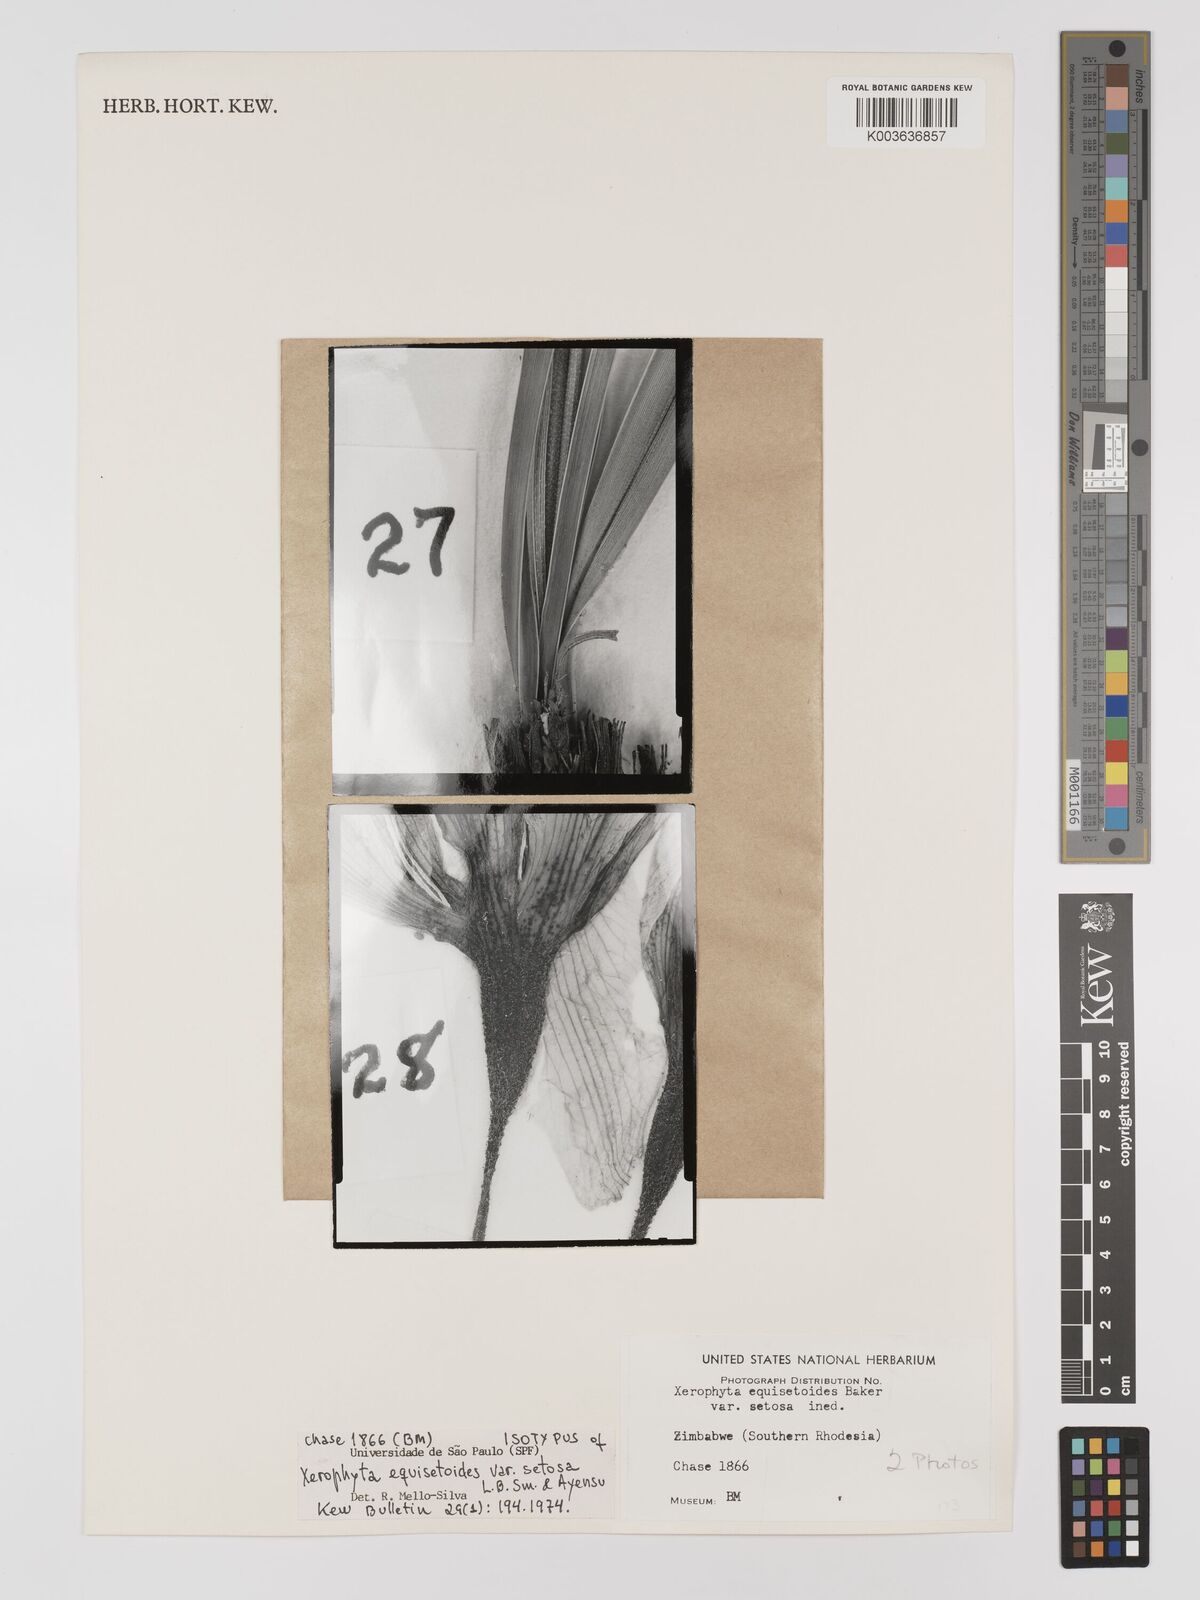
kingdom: Plantae
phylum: Tracheophyta
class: Liliopsida
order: Pandanales
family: Velloziaceae
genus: Xerophyta
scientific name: Xerophyta equisetoides
